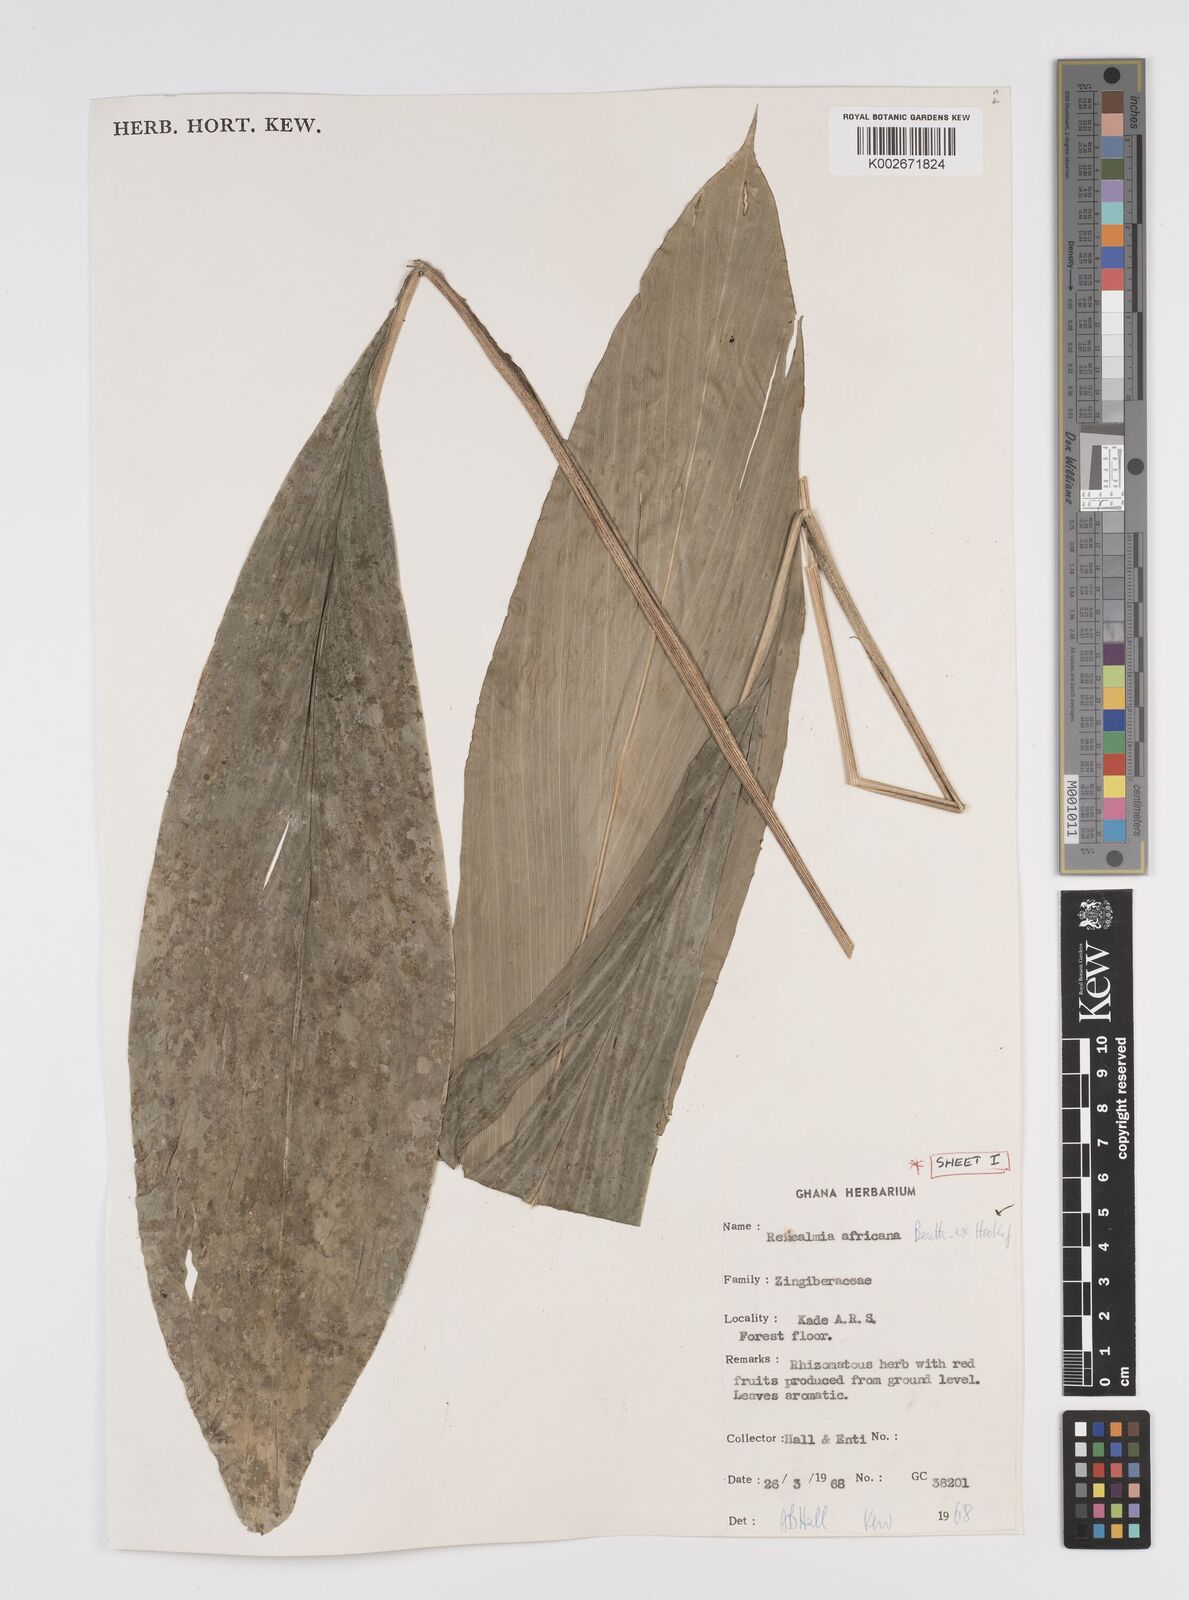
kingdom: Plantae
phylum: Tracheophyta
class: Liliopsida
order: Zingiberales
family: Zingiberaceae
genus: Renealmia
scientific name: Renealmia africana
